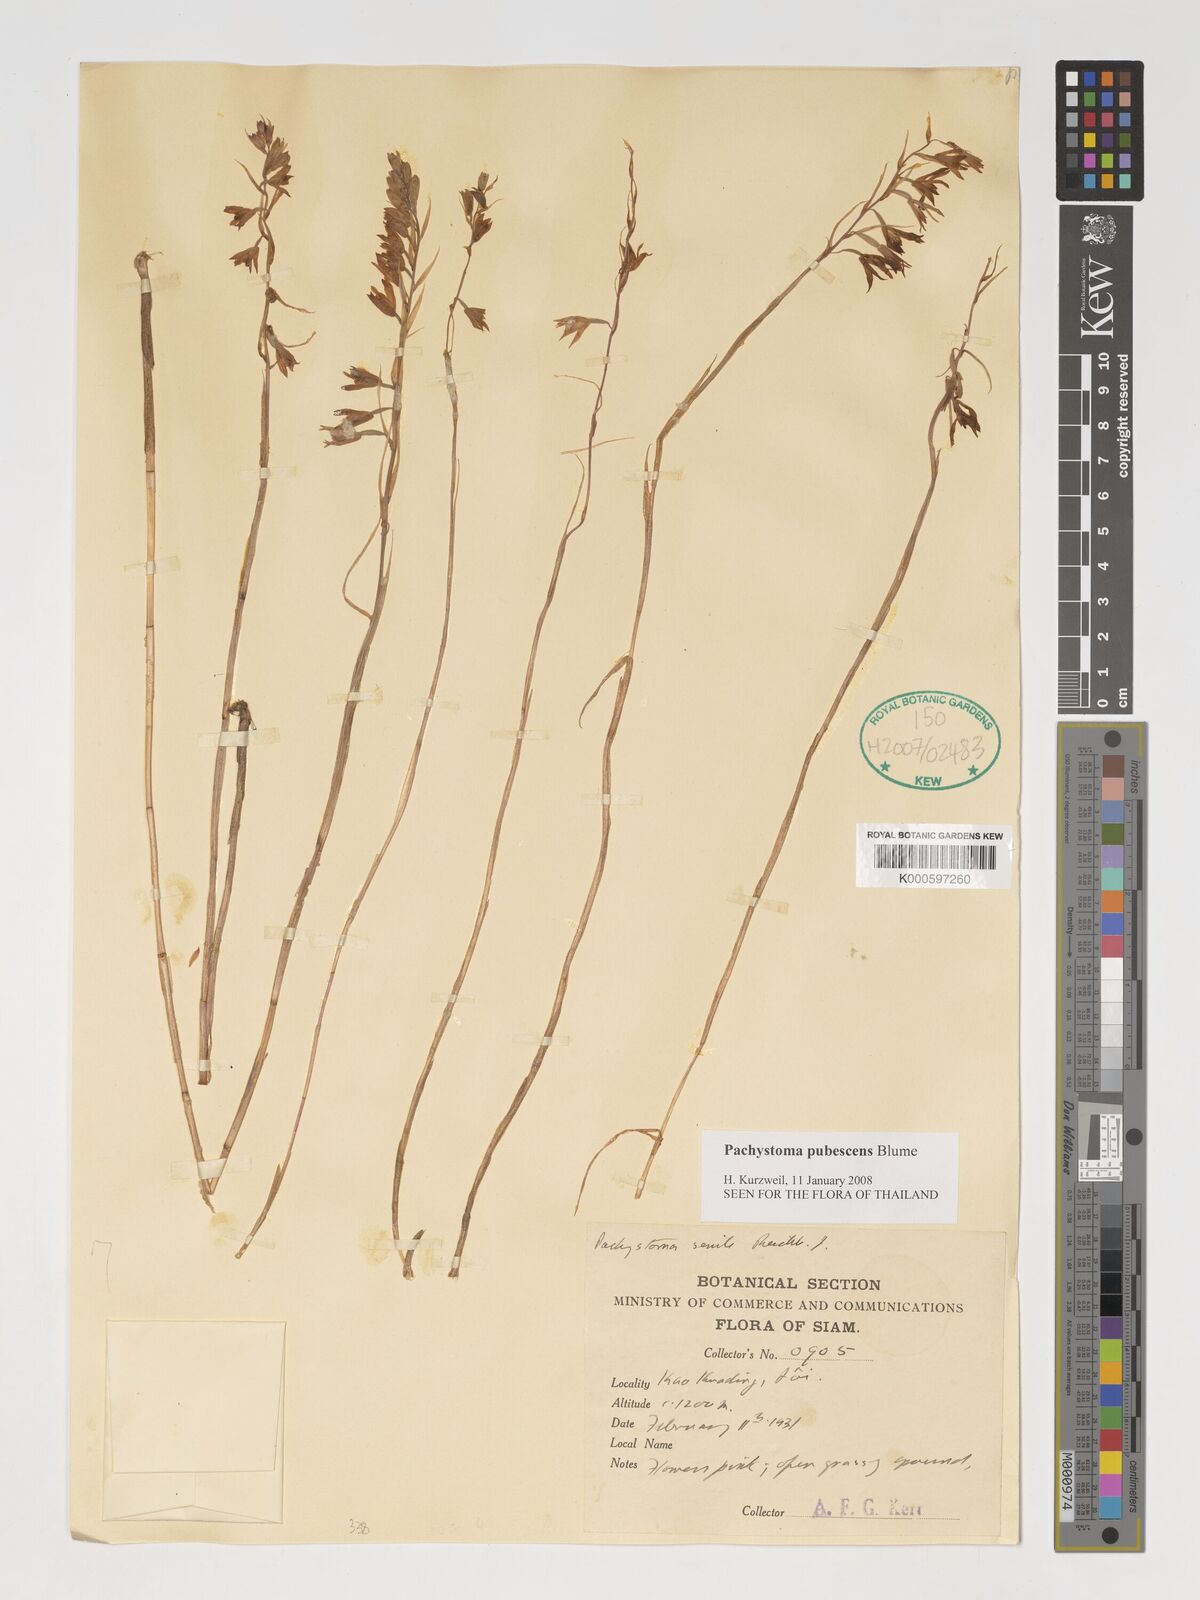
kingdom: Plantae
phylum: Tracheophyta
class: Liliopsida
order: Asparagales
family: Orchidaceae
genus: Pachystoma
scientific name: Pachystoma pubescens
